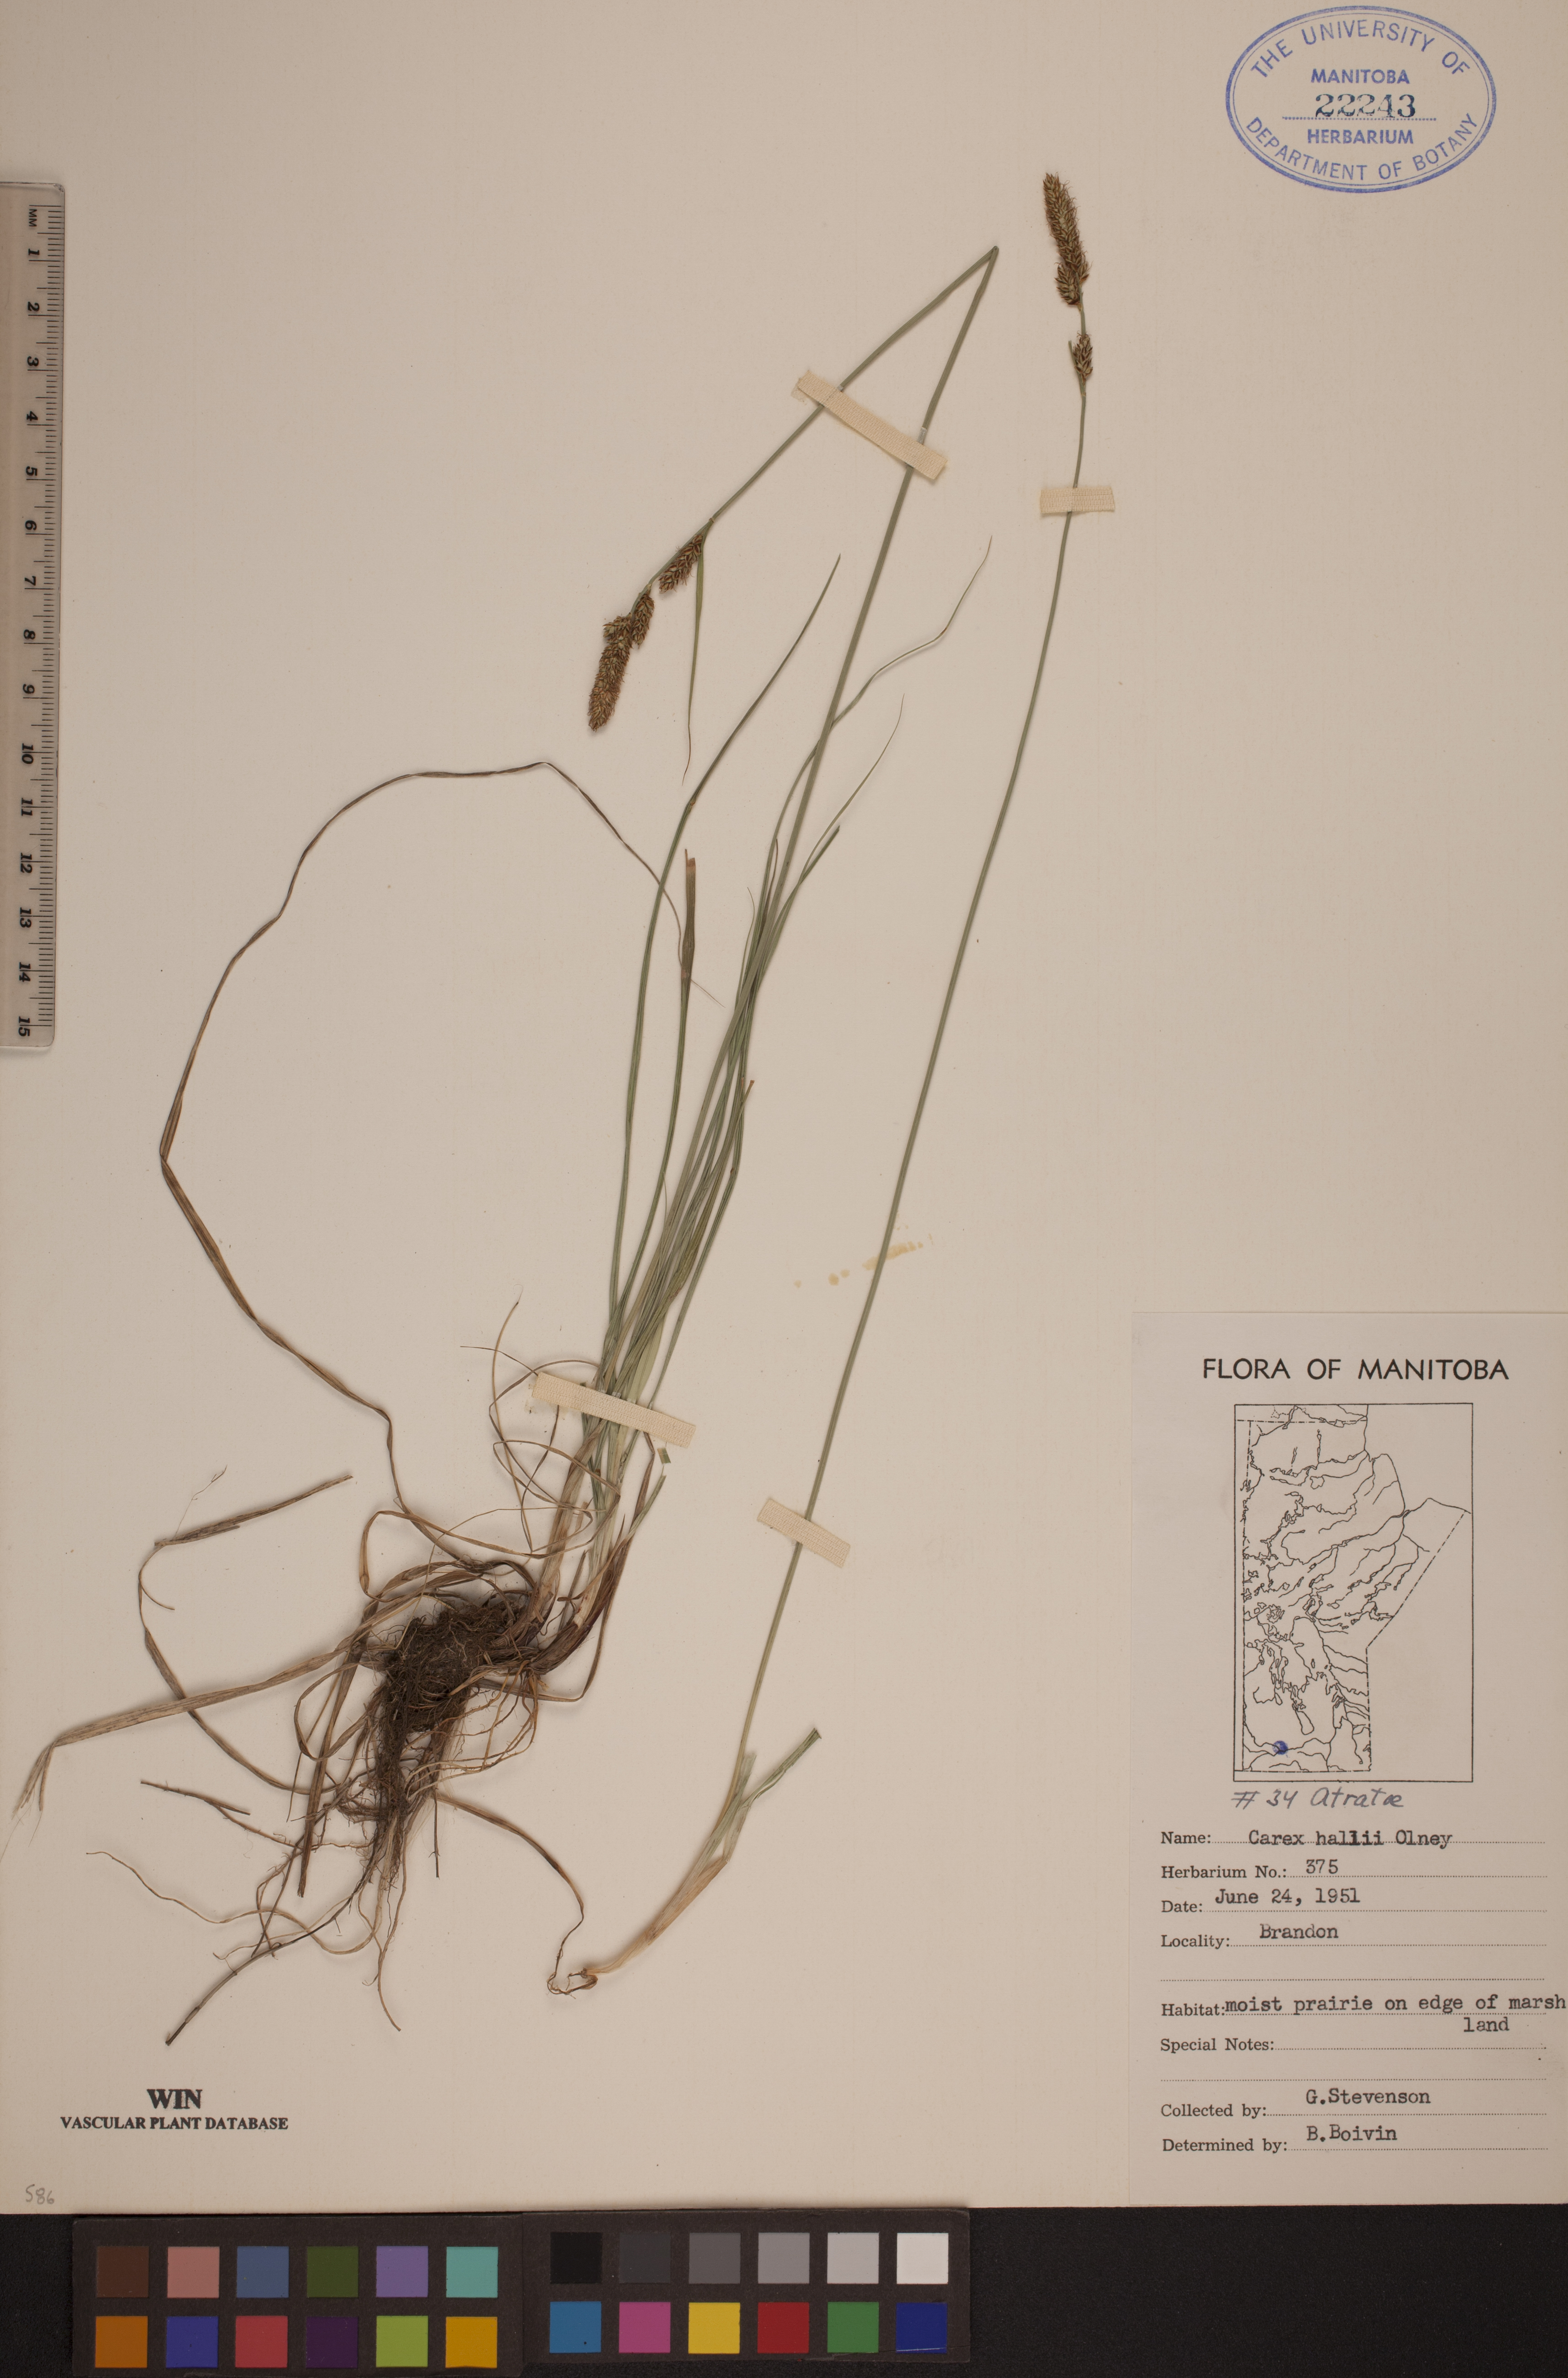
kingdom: Plantae
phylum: Tracheophyta
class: Liliopsida
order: Poales
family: Cyperaceae
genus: Carex
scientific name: Carex hallii
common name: Deer sedge
